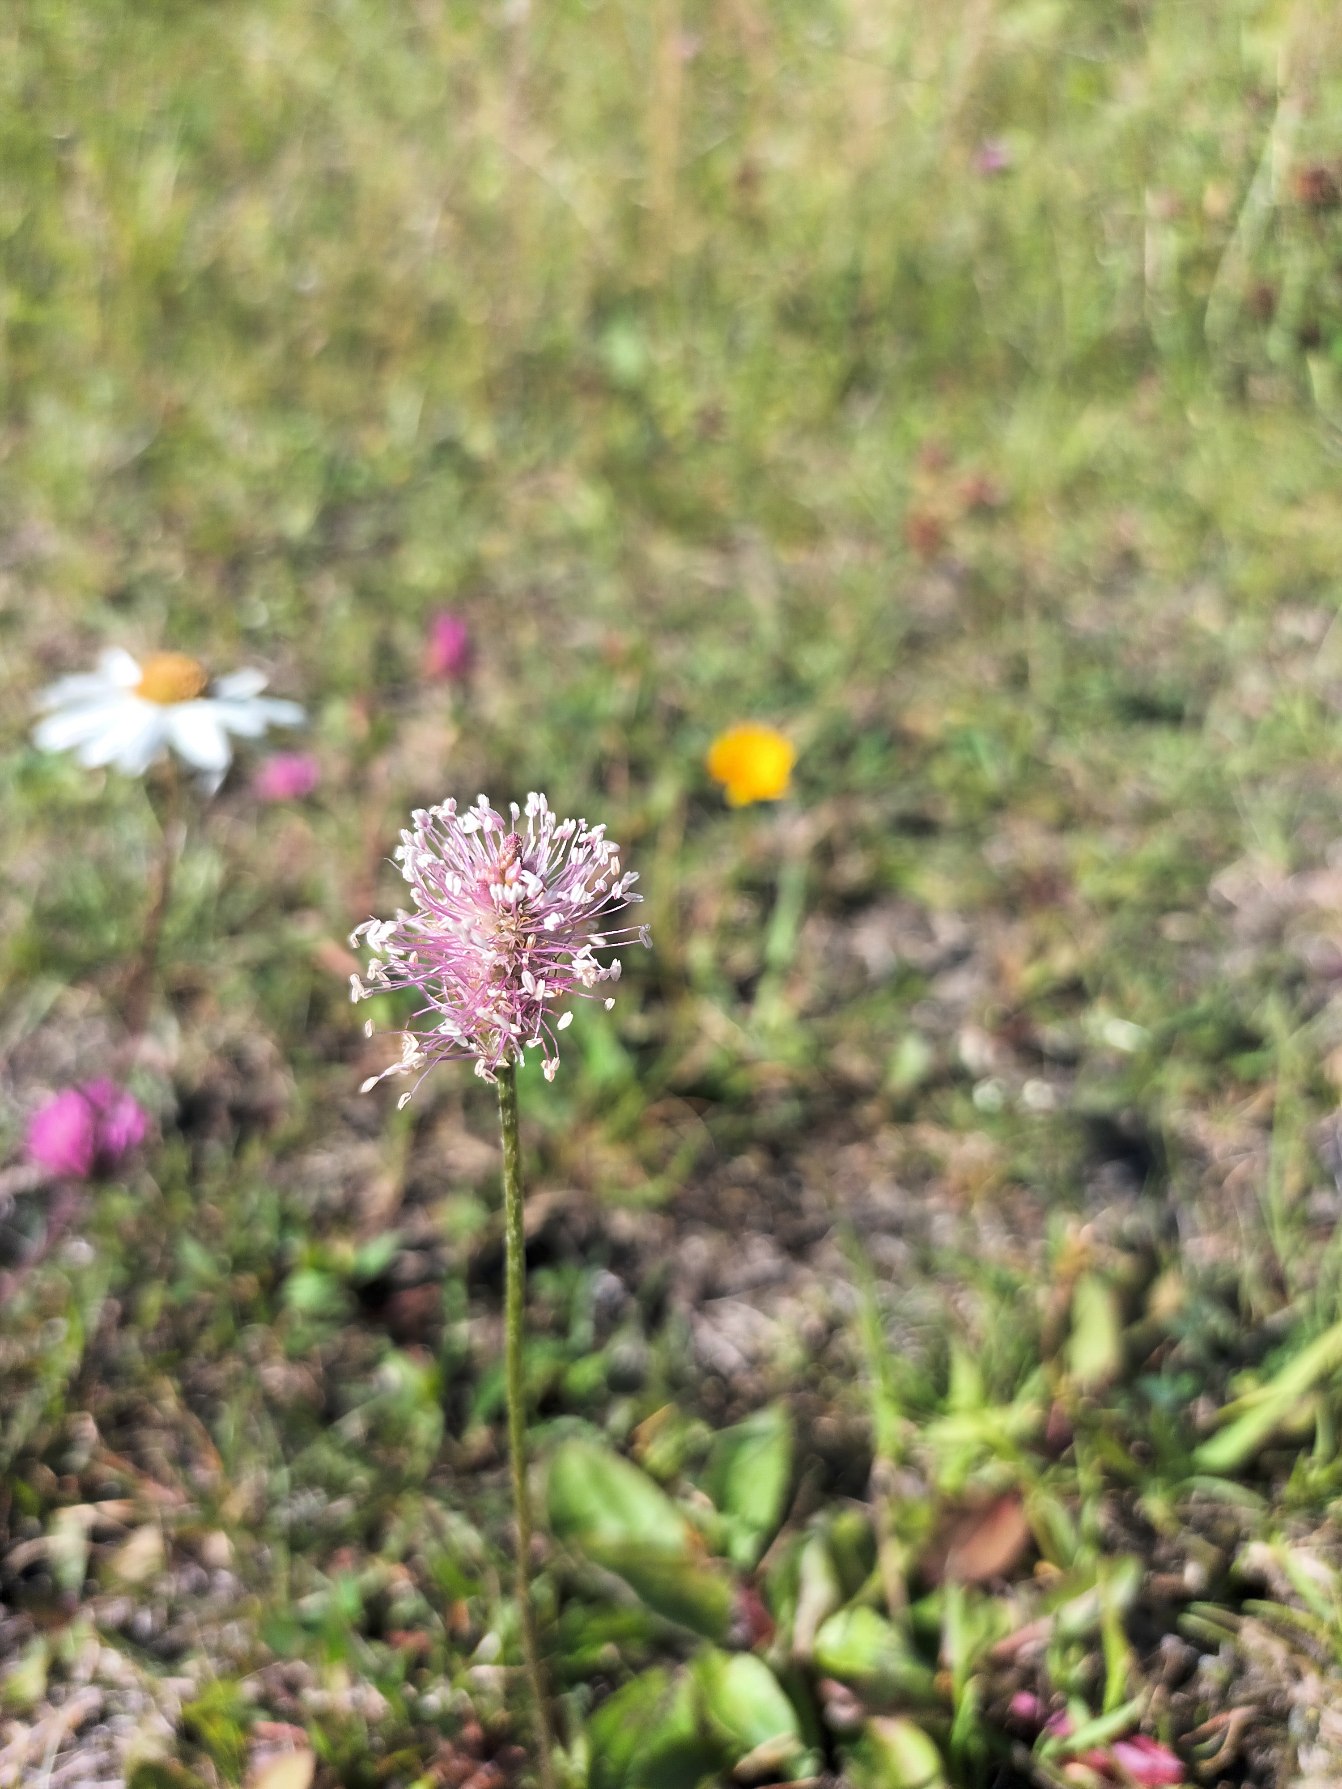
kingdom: Plantae
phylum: Tracheophyta
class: Magnoliopsida
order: Lamiales
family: Plantaginaceae
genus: Plantago
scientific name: Plantago media
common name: Dunet vejbred
